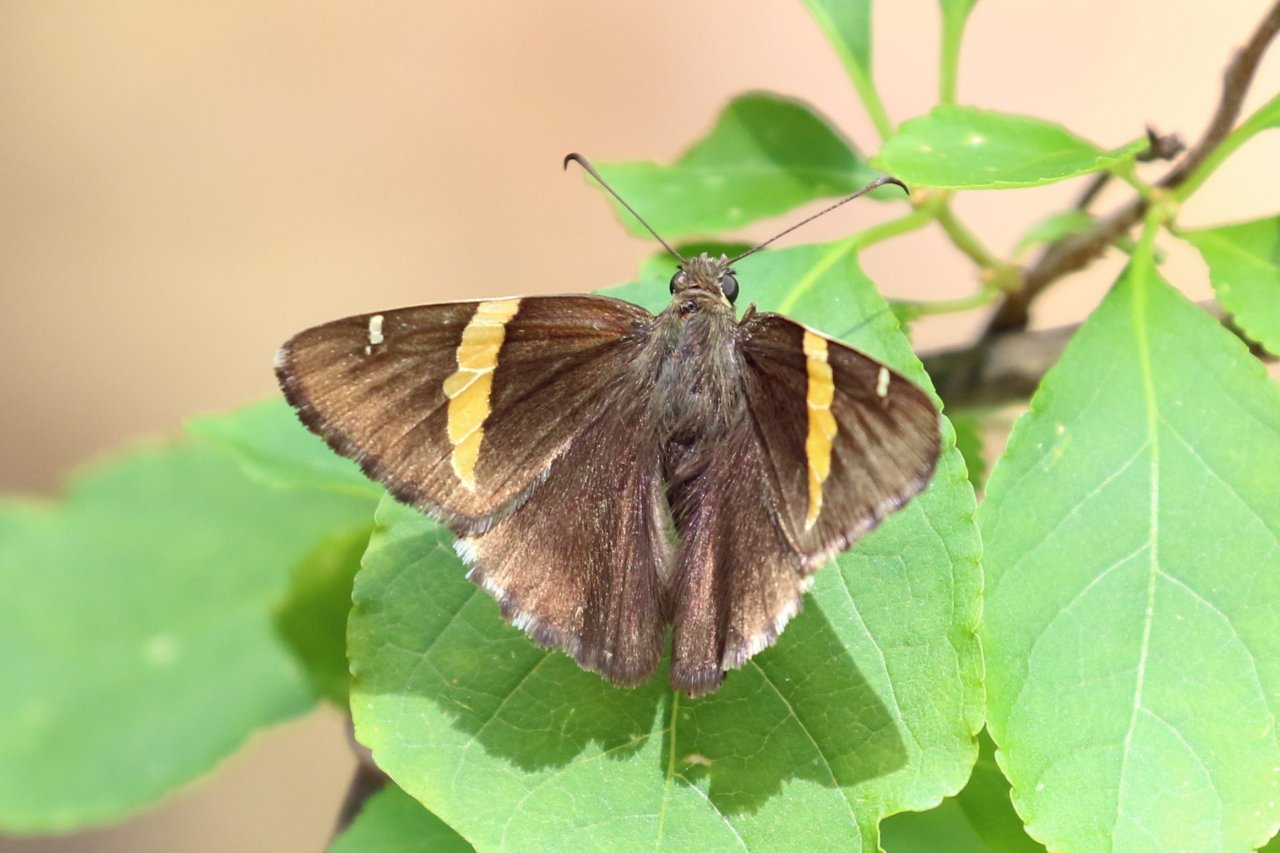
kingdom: Animalia
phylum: Arthropoda
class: Insecta
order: Lepidoptera
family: Hesperiidae
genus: Autochton
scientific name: Autochton cellus
